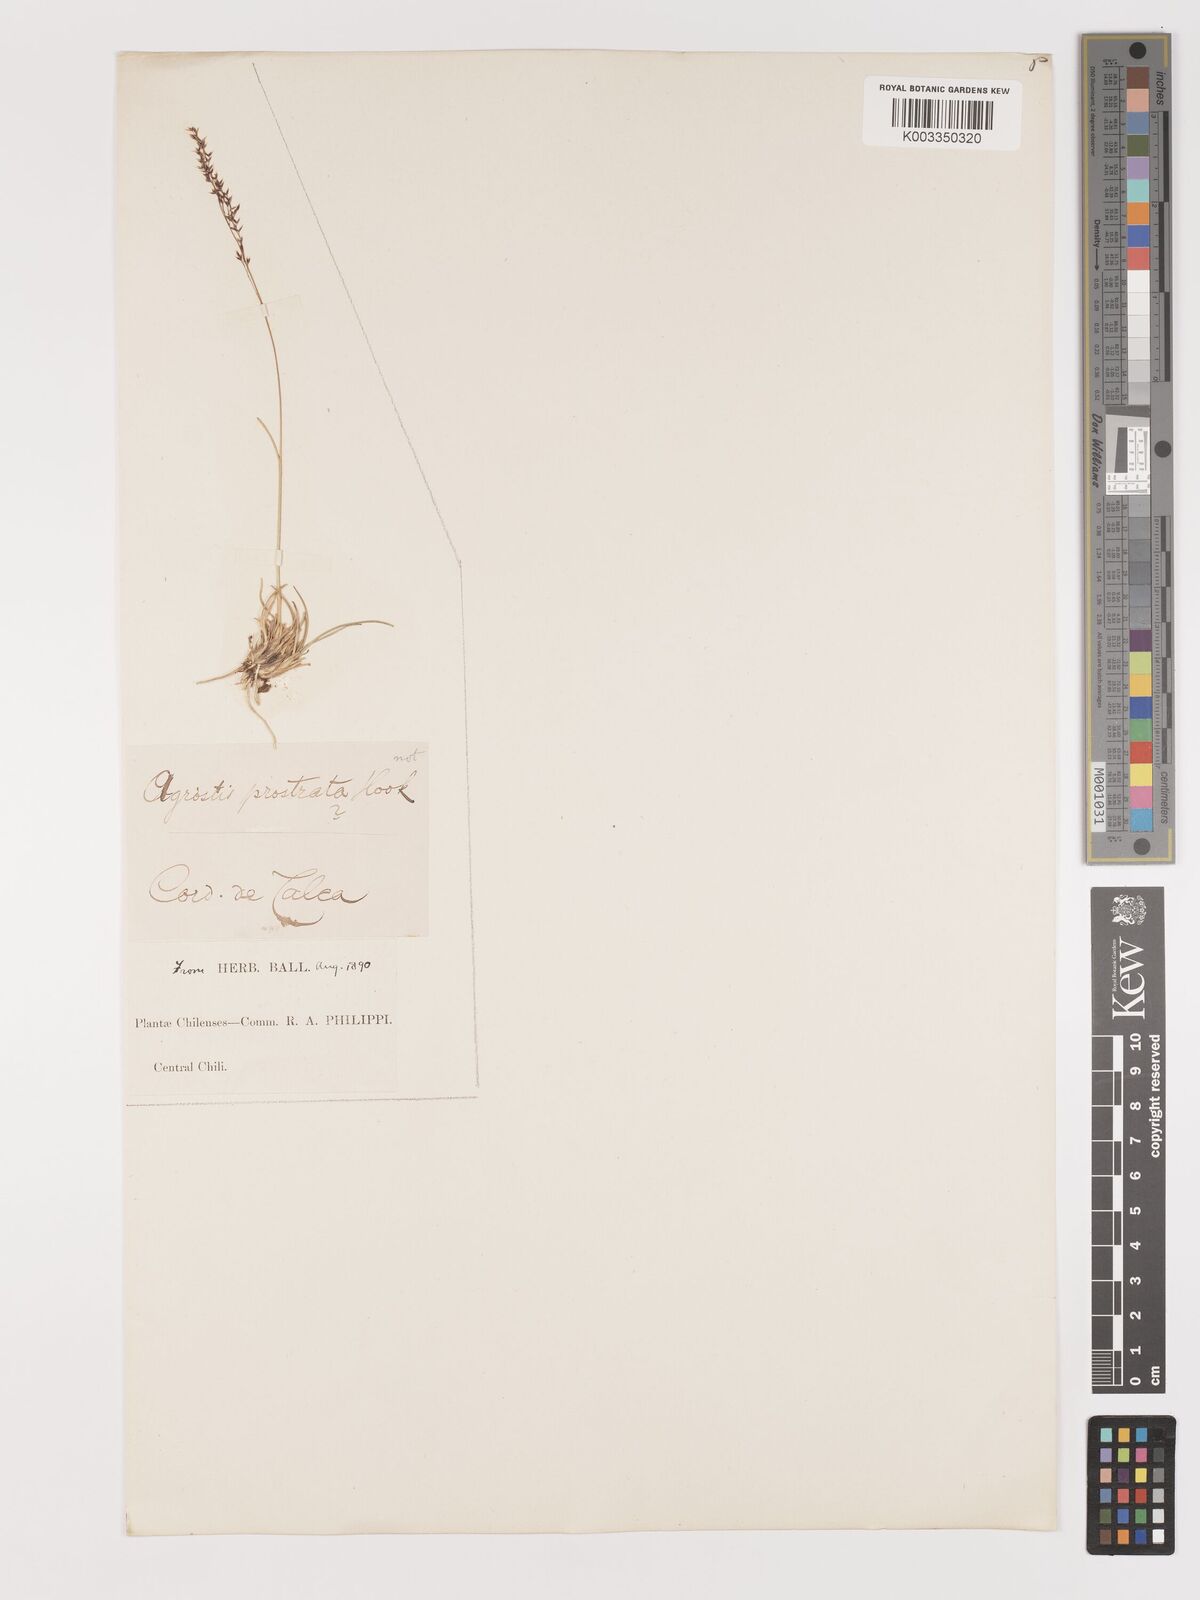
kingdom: Plantae
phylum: Tracheophyta
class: Liliopsida
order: Poales
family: Poaceae
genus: Agrostis
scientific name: Agrostis
